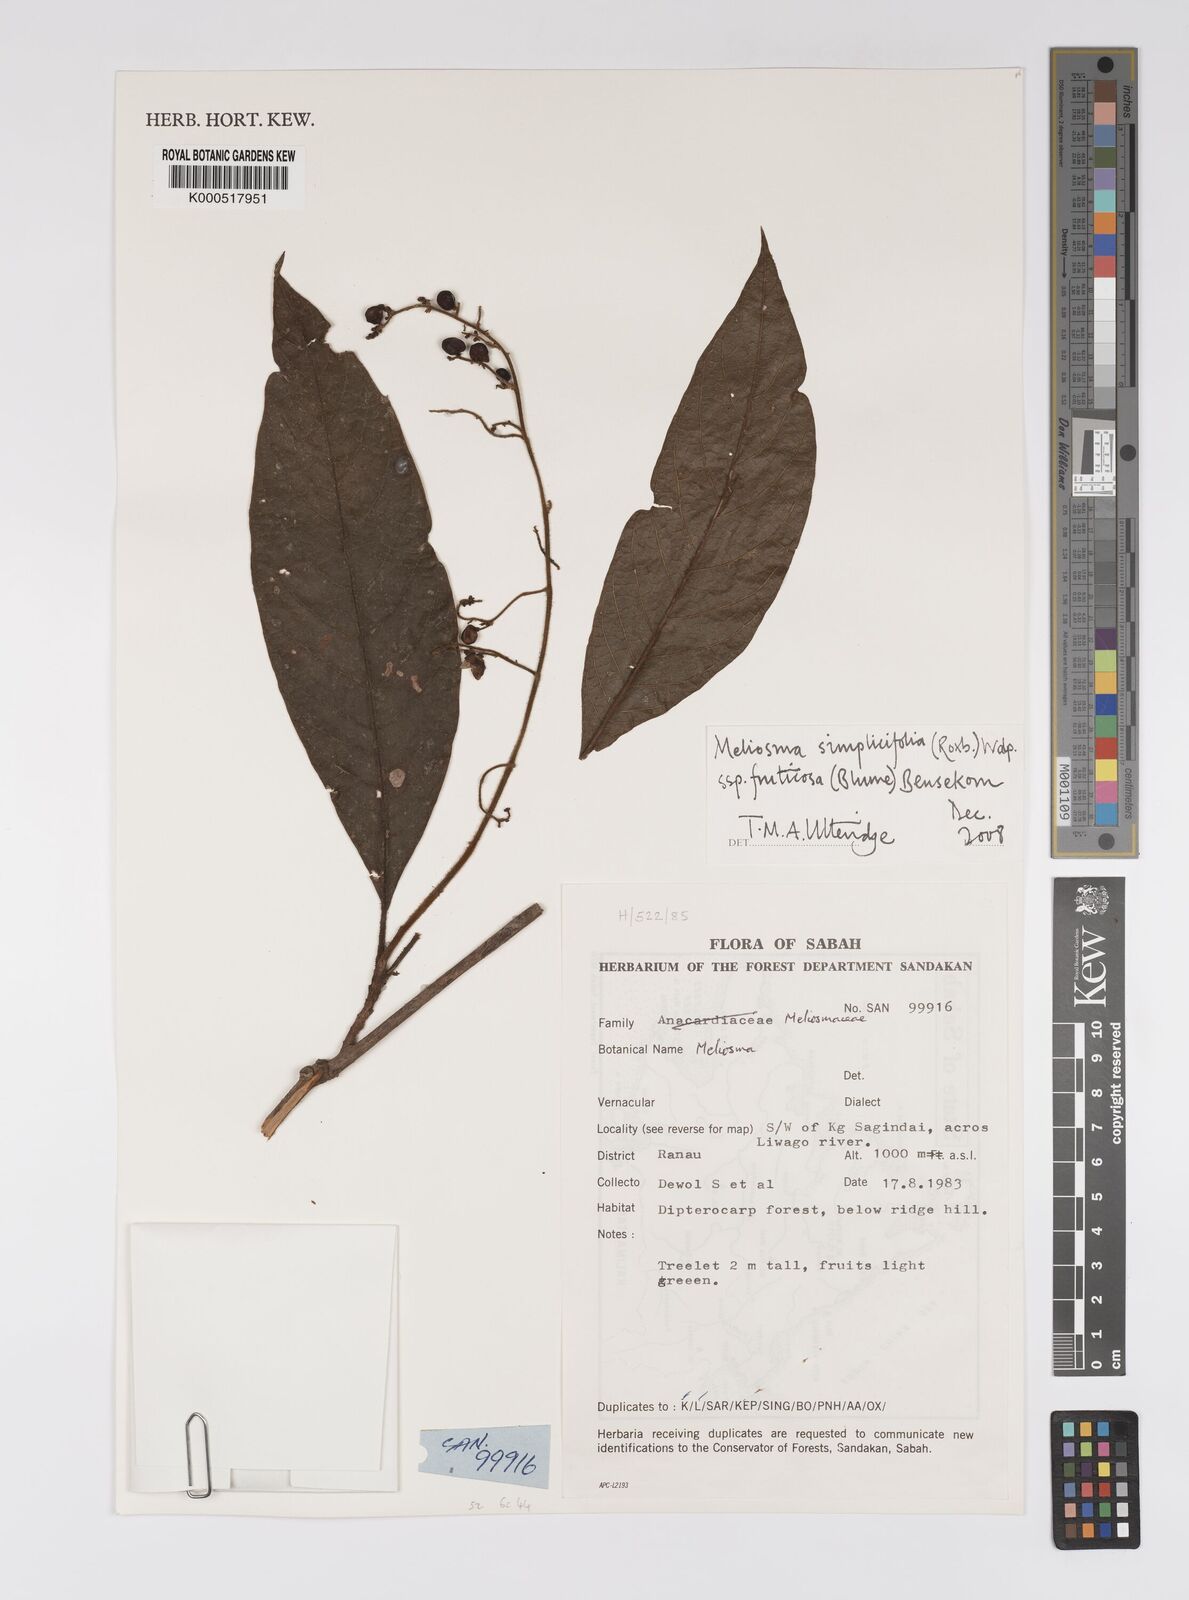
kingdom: Plantae
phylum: Tracheophyta
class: Magnoliopsida
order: Proteales
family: Sabiaceae
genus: Meliosma
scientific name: Meliosma simplicifolia
